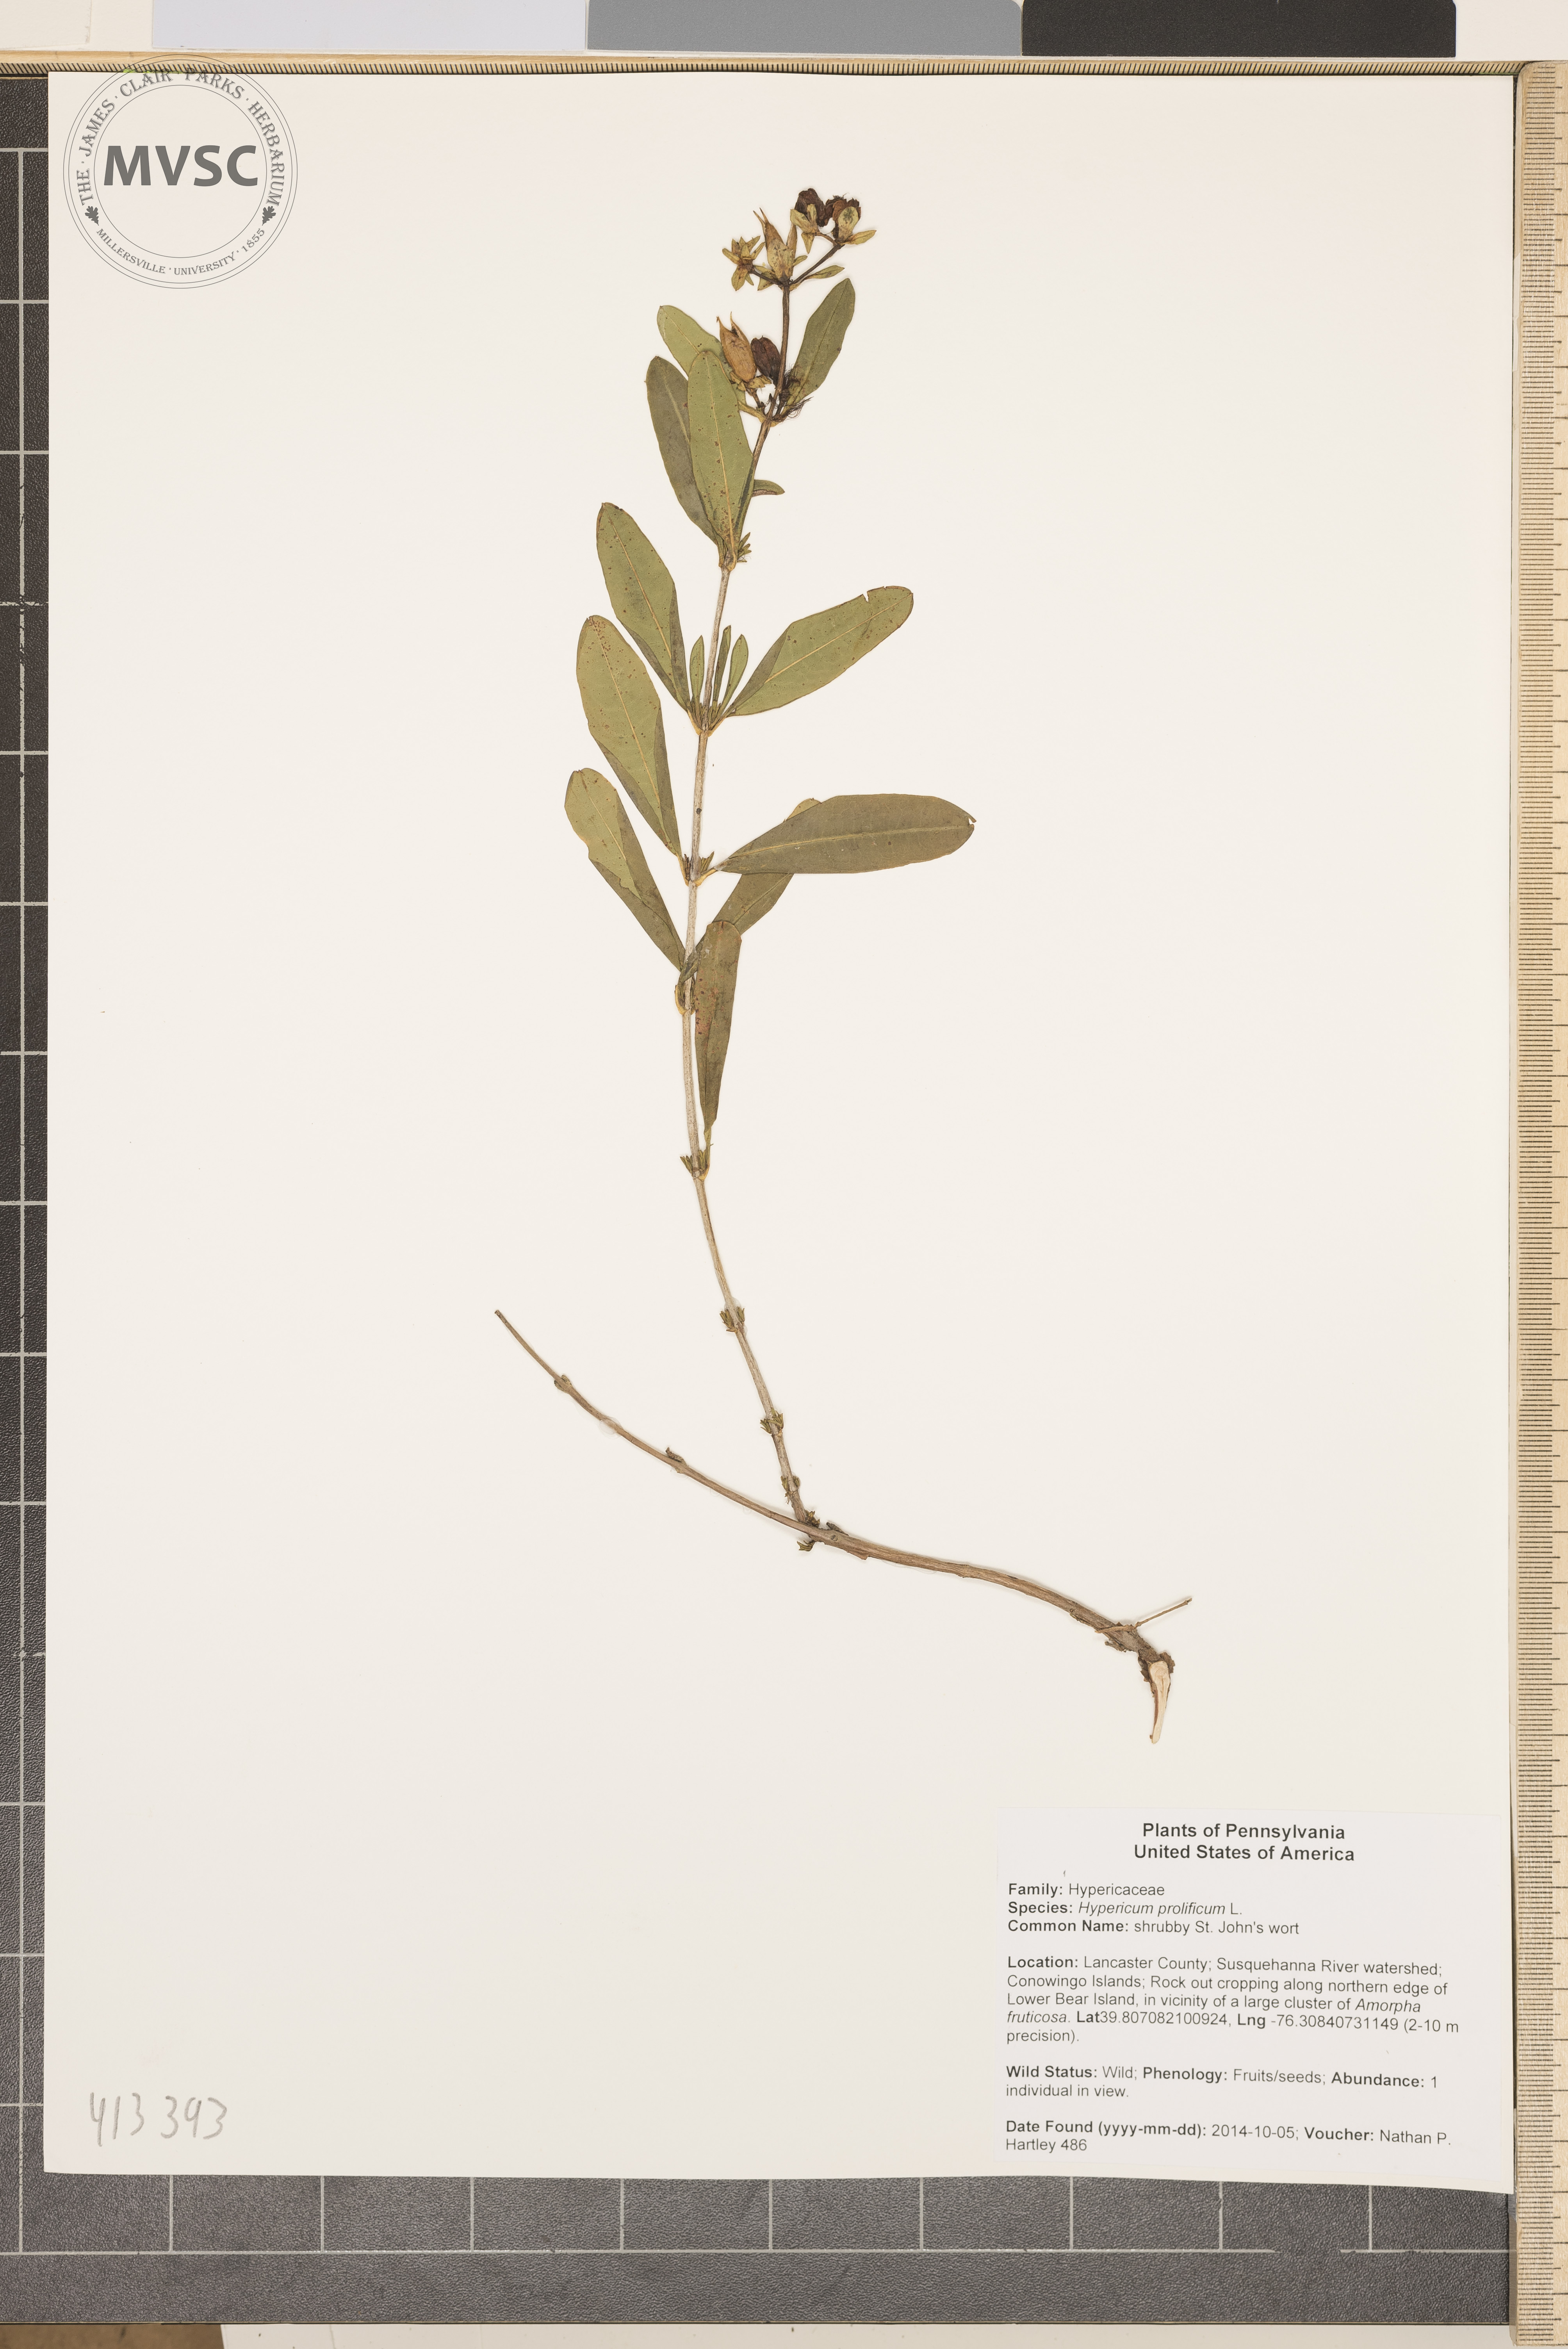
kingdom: Plantae
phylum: Tracheophyta
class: Magnoliopsida
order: Malpighiales
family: Hypericaceae
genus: Hypericum
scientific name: Hypericum prolificum
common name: St. John's wort
